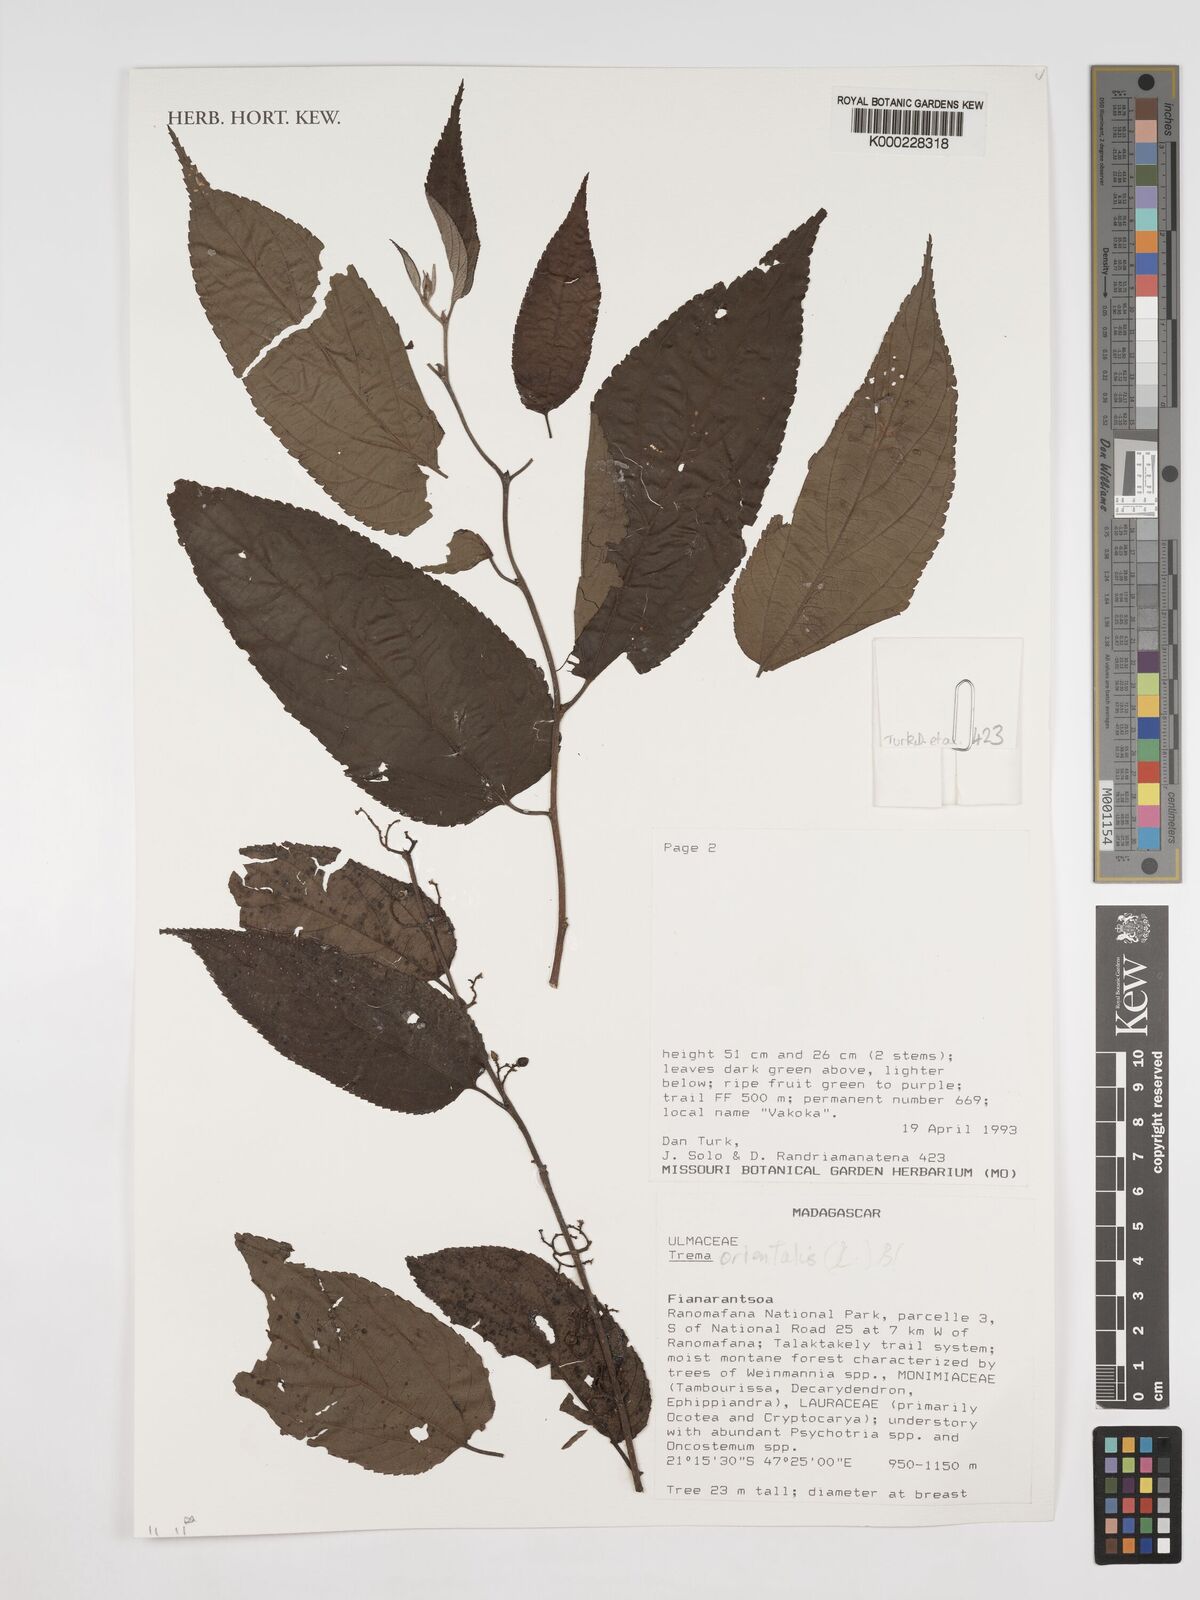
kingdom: Plantae
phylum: Tracheophyta
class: Magnoliopsida
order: Rosales
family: Cannabaceae
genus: Trema
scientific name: Trema
